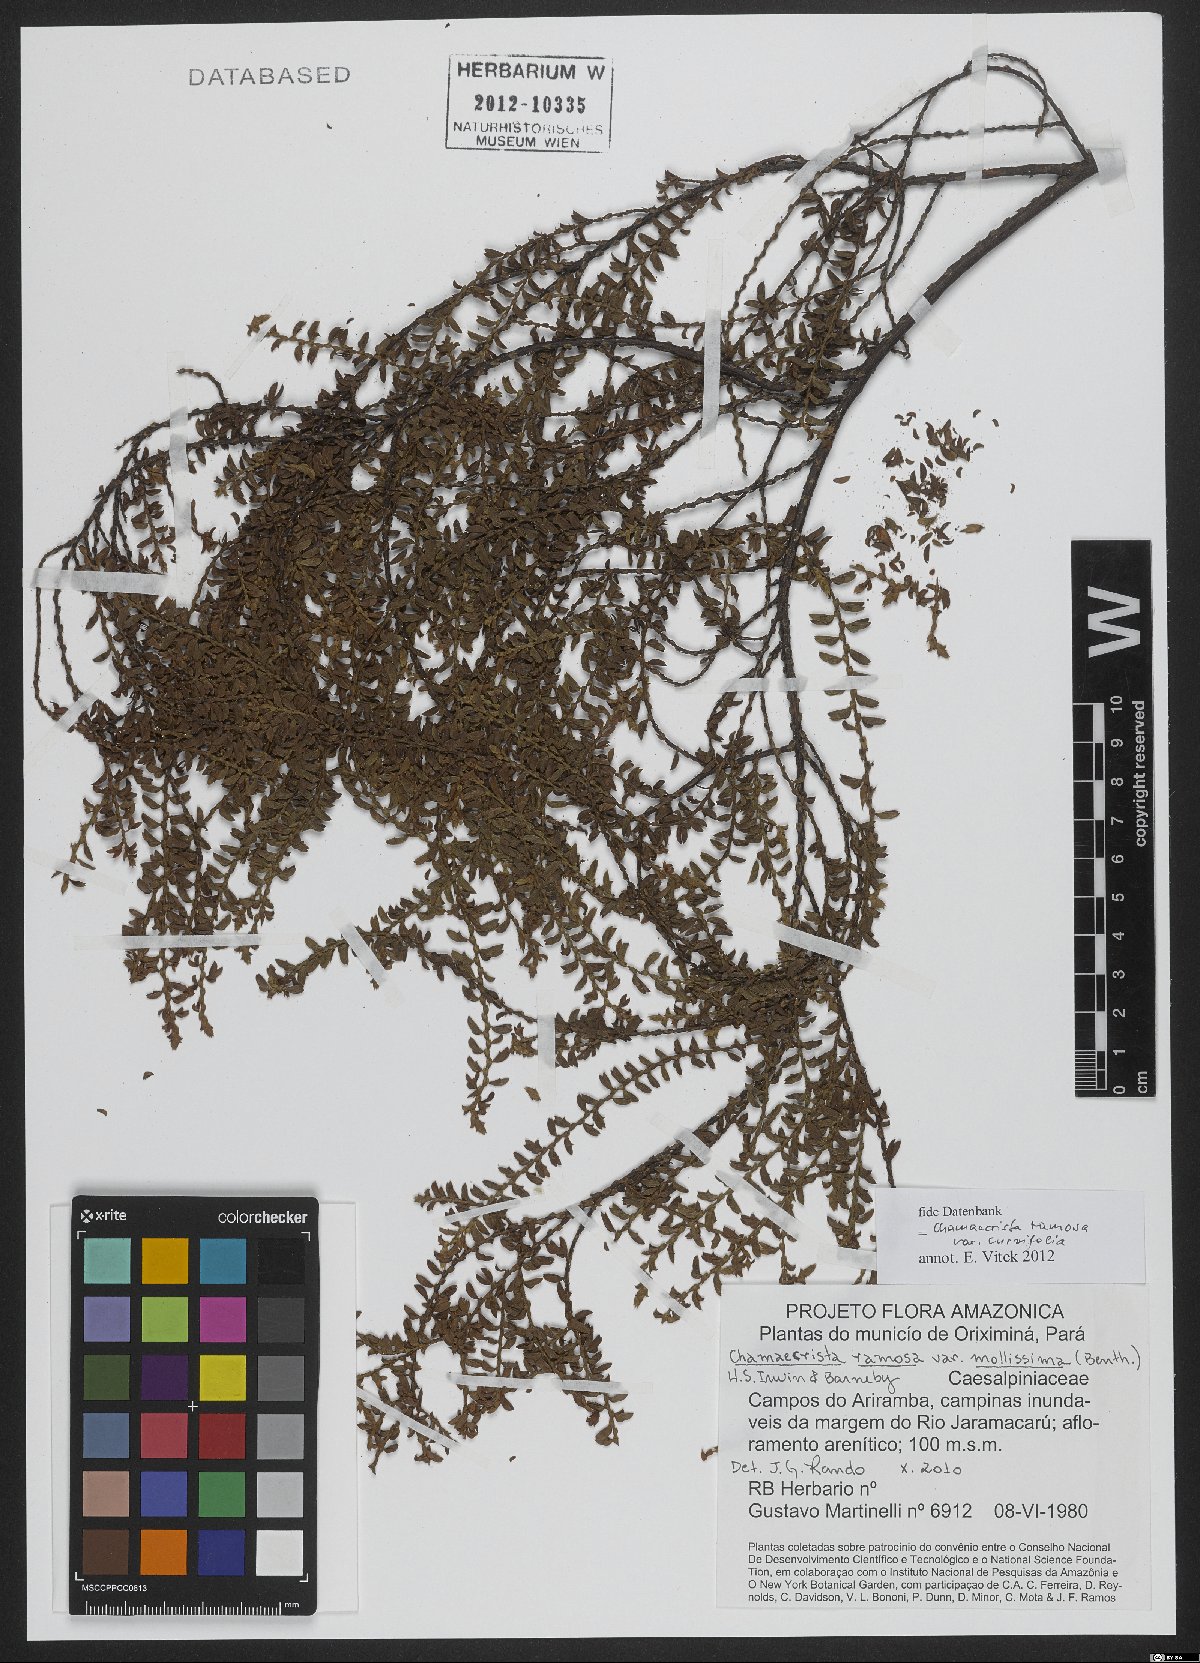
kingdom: Plantae
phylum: Tracheophyta
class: Magnoliopsida
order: Fabales
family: Fabaceae
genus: Chamaecrista
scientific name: Chamaecrista ramosa
